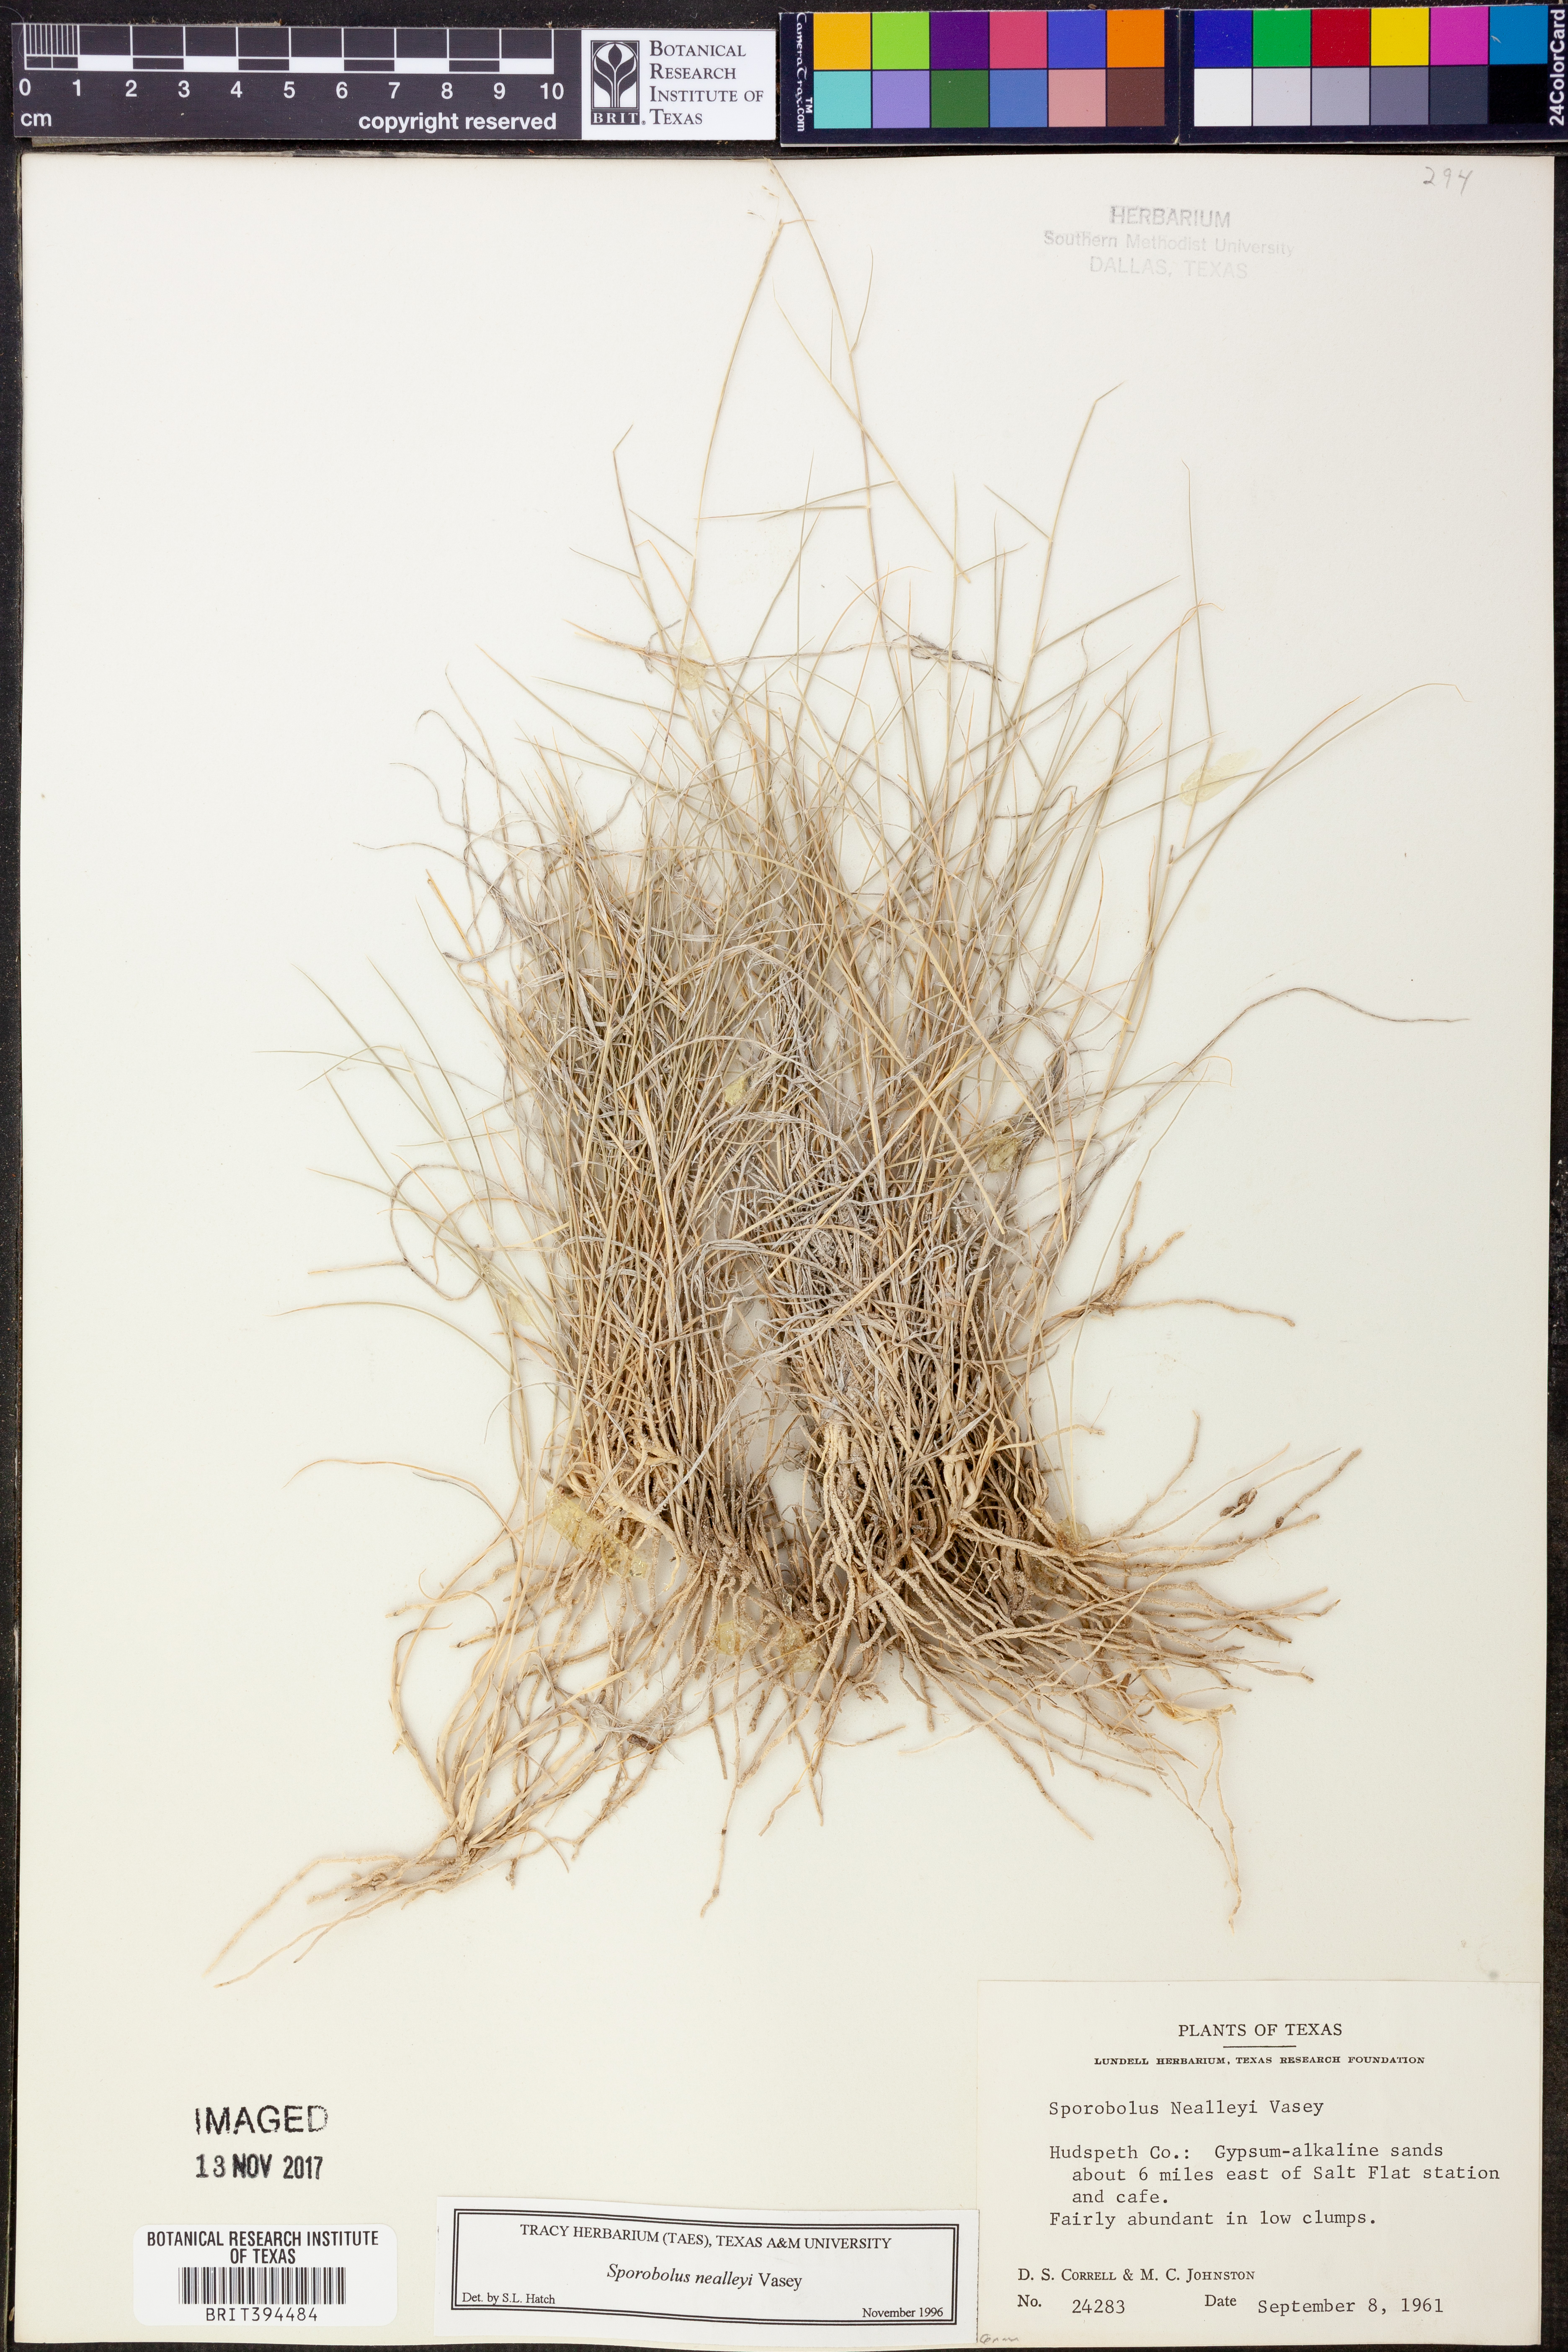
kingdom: Plantae
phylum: Tracheophyta
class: Liliopsida
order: Poales
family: Poaceae
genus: Sporobolus
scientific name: Sporobolus nealleyi
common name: Gyp grass
